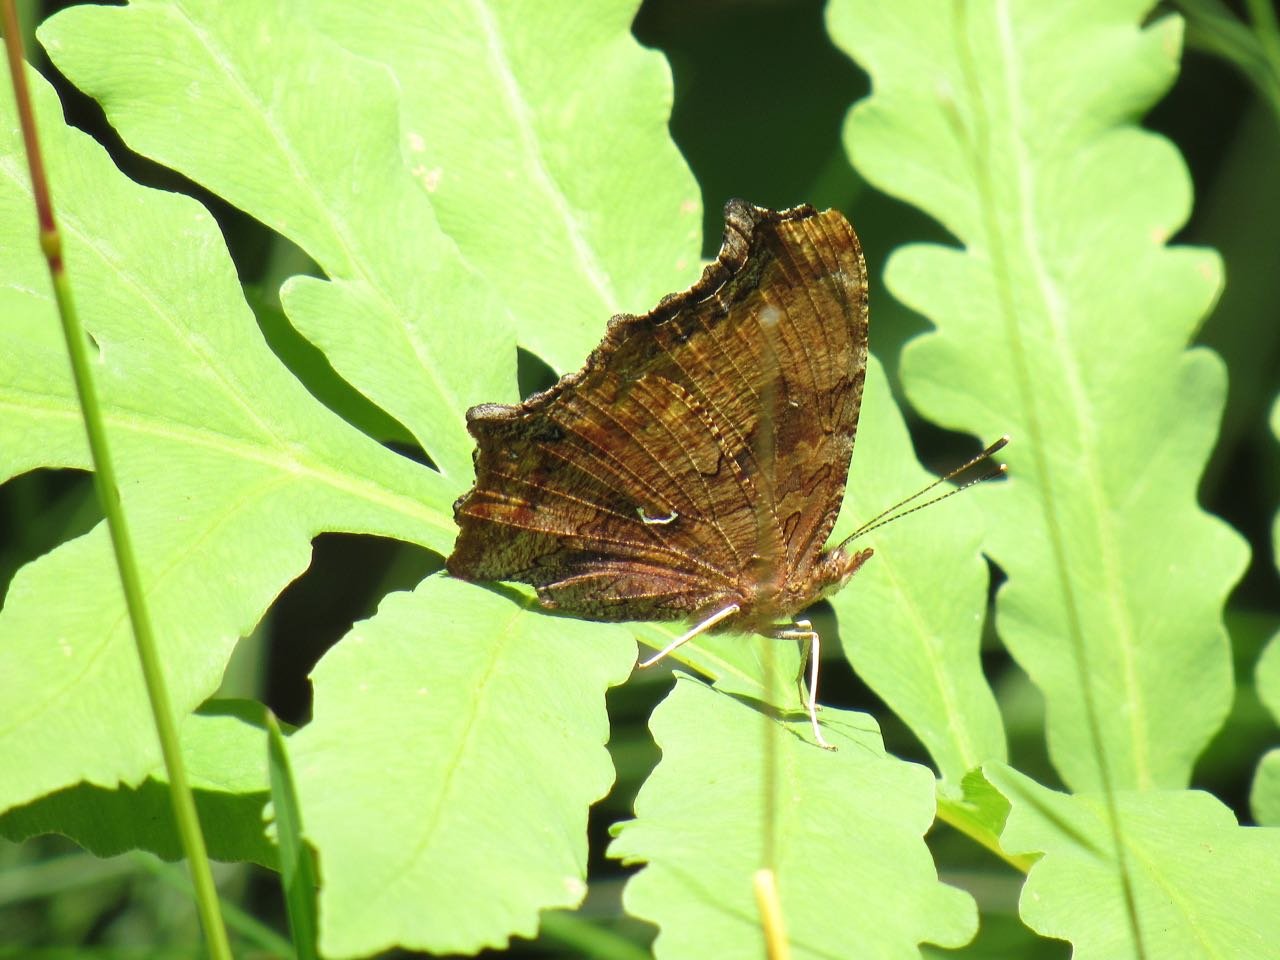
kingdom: Animalia
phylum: Arthropoda
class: Insecta
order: Lepidoptera
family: Nymphalidae
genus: Polygonia
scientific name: Polygonia comma
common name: Eastern Comma
